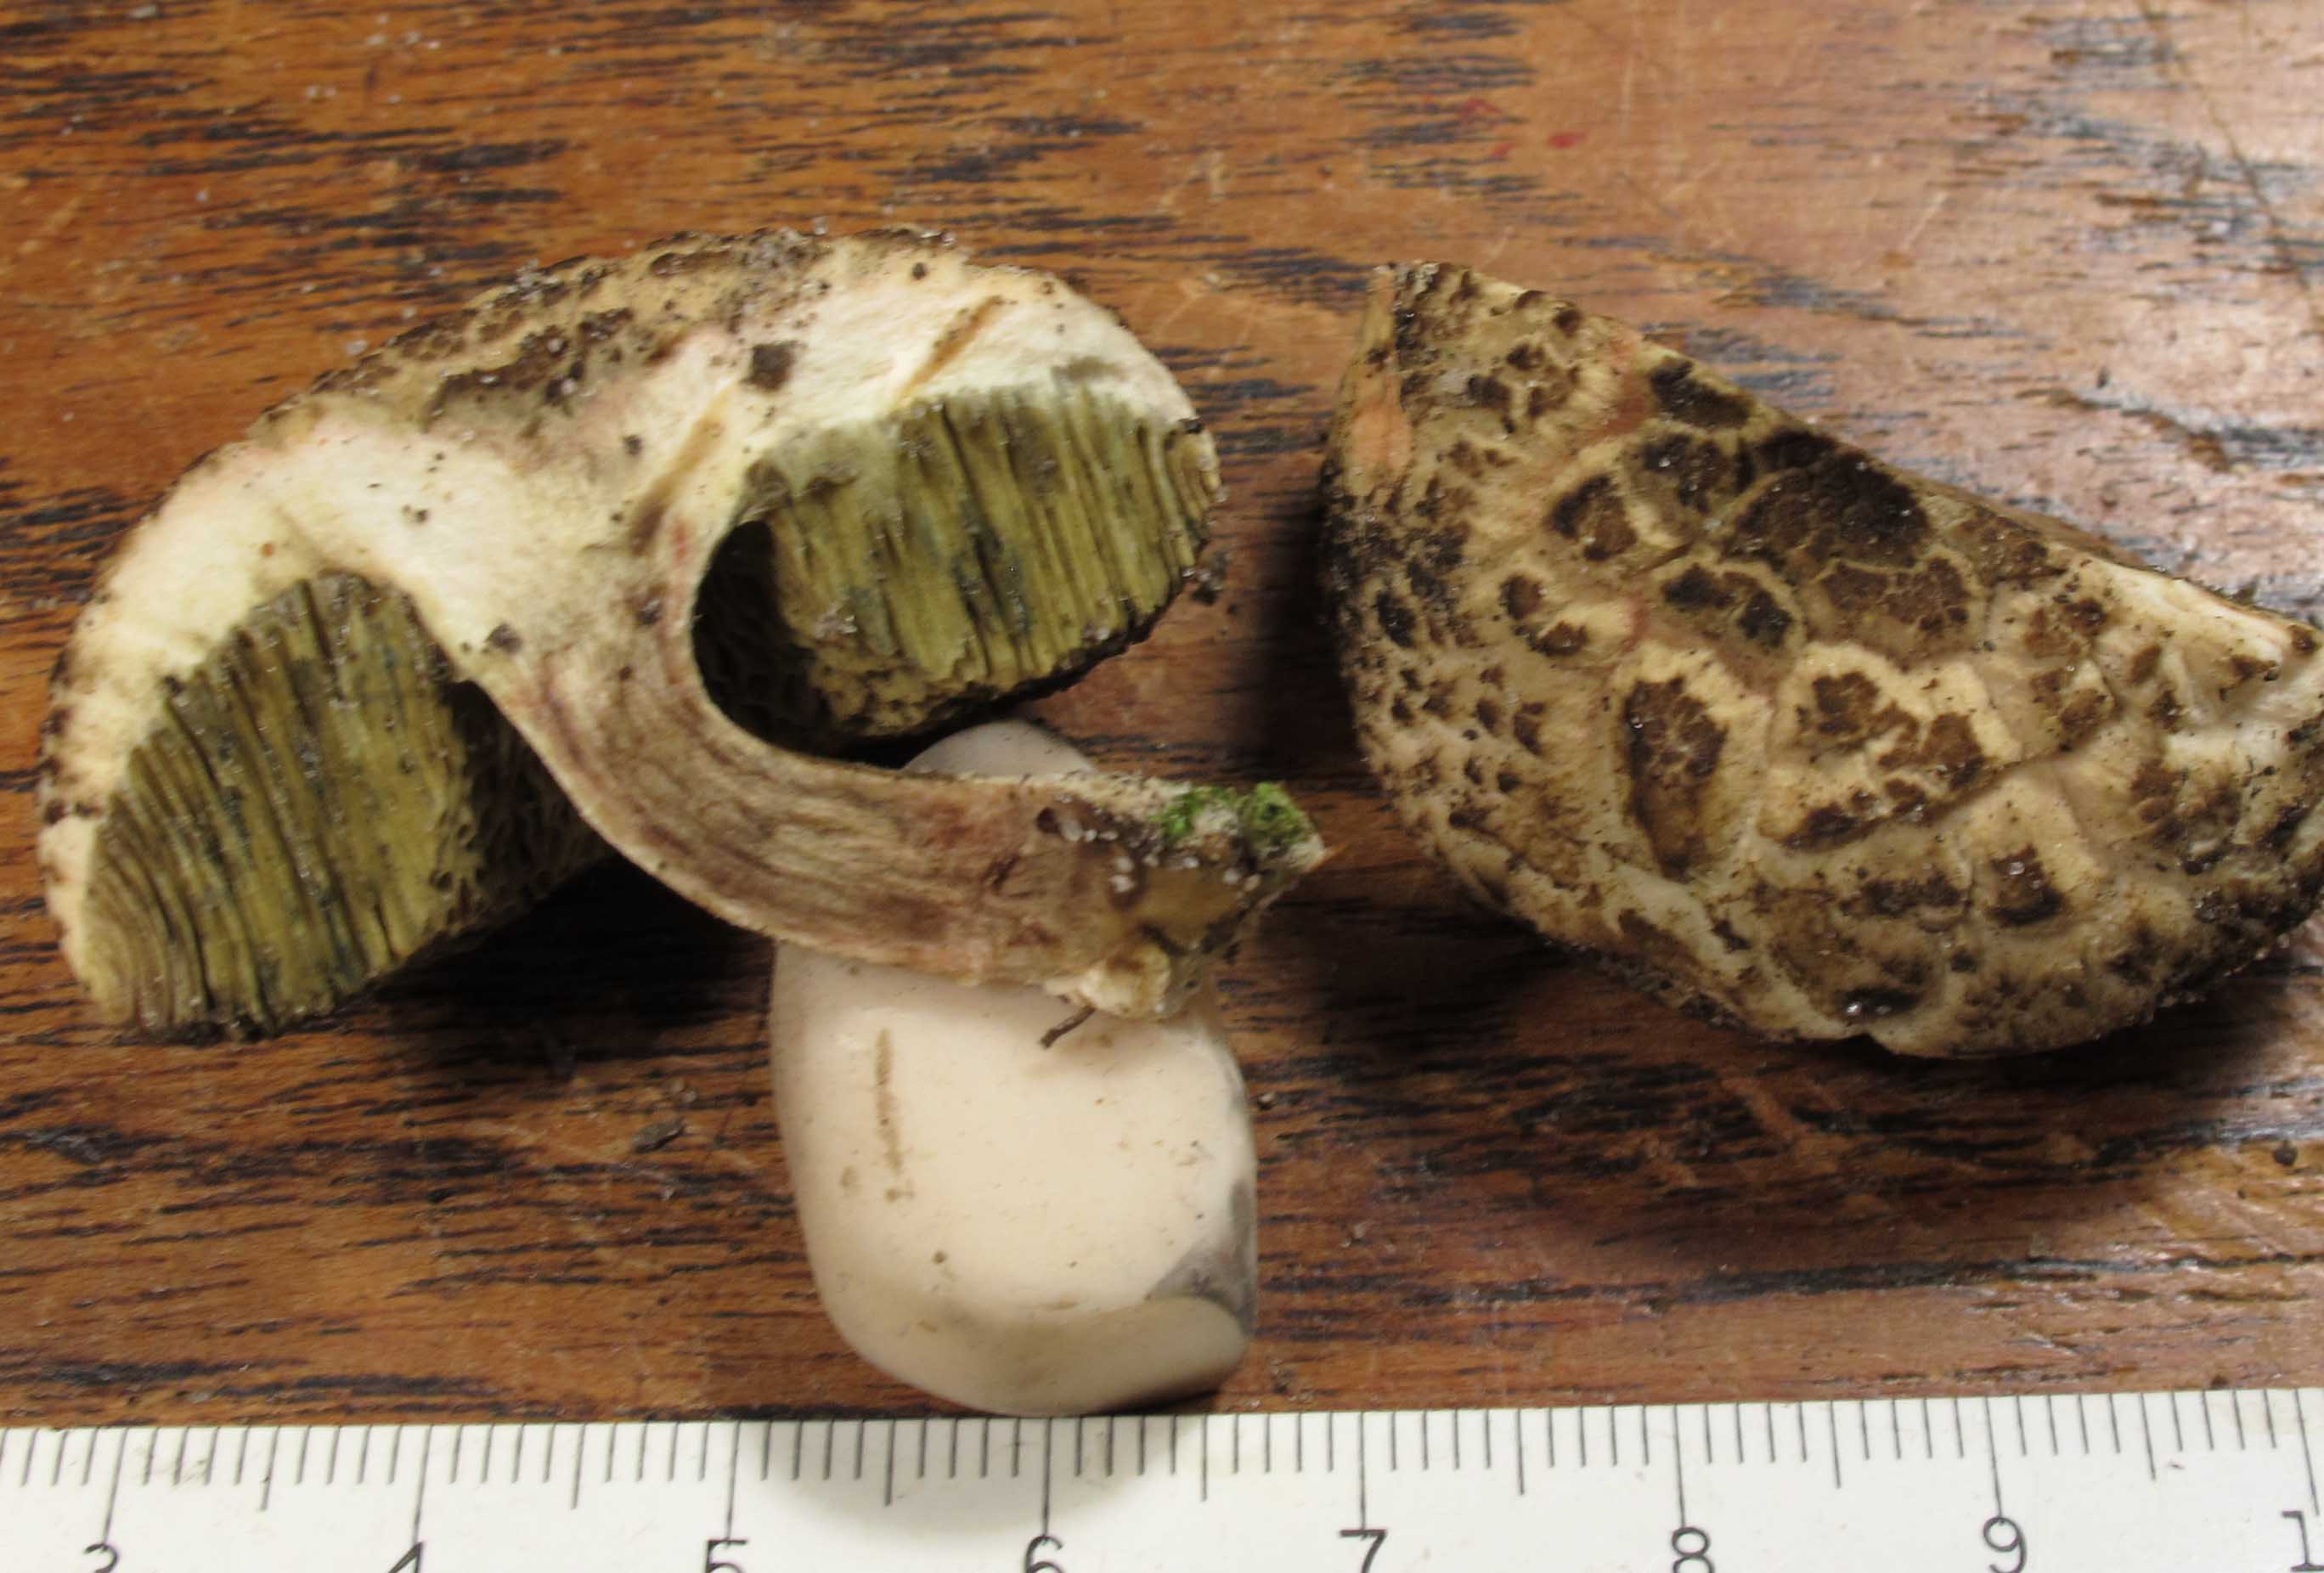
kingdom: Fungi
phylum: Basidiomycota
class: Agaricomycetes
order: Boletales
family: Boletaceae
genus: Xerocomellus
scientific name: Xerocomellus porosporus
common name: hvidsprukken rørhat
